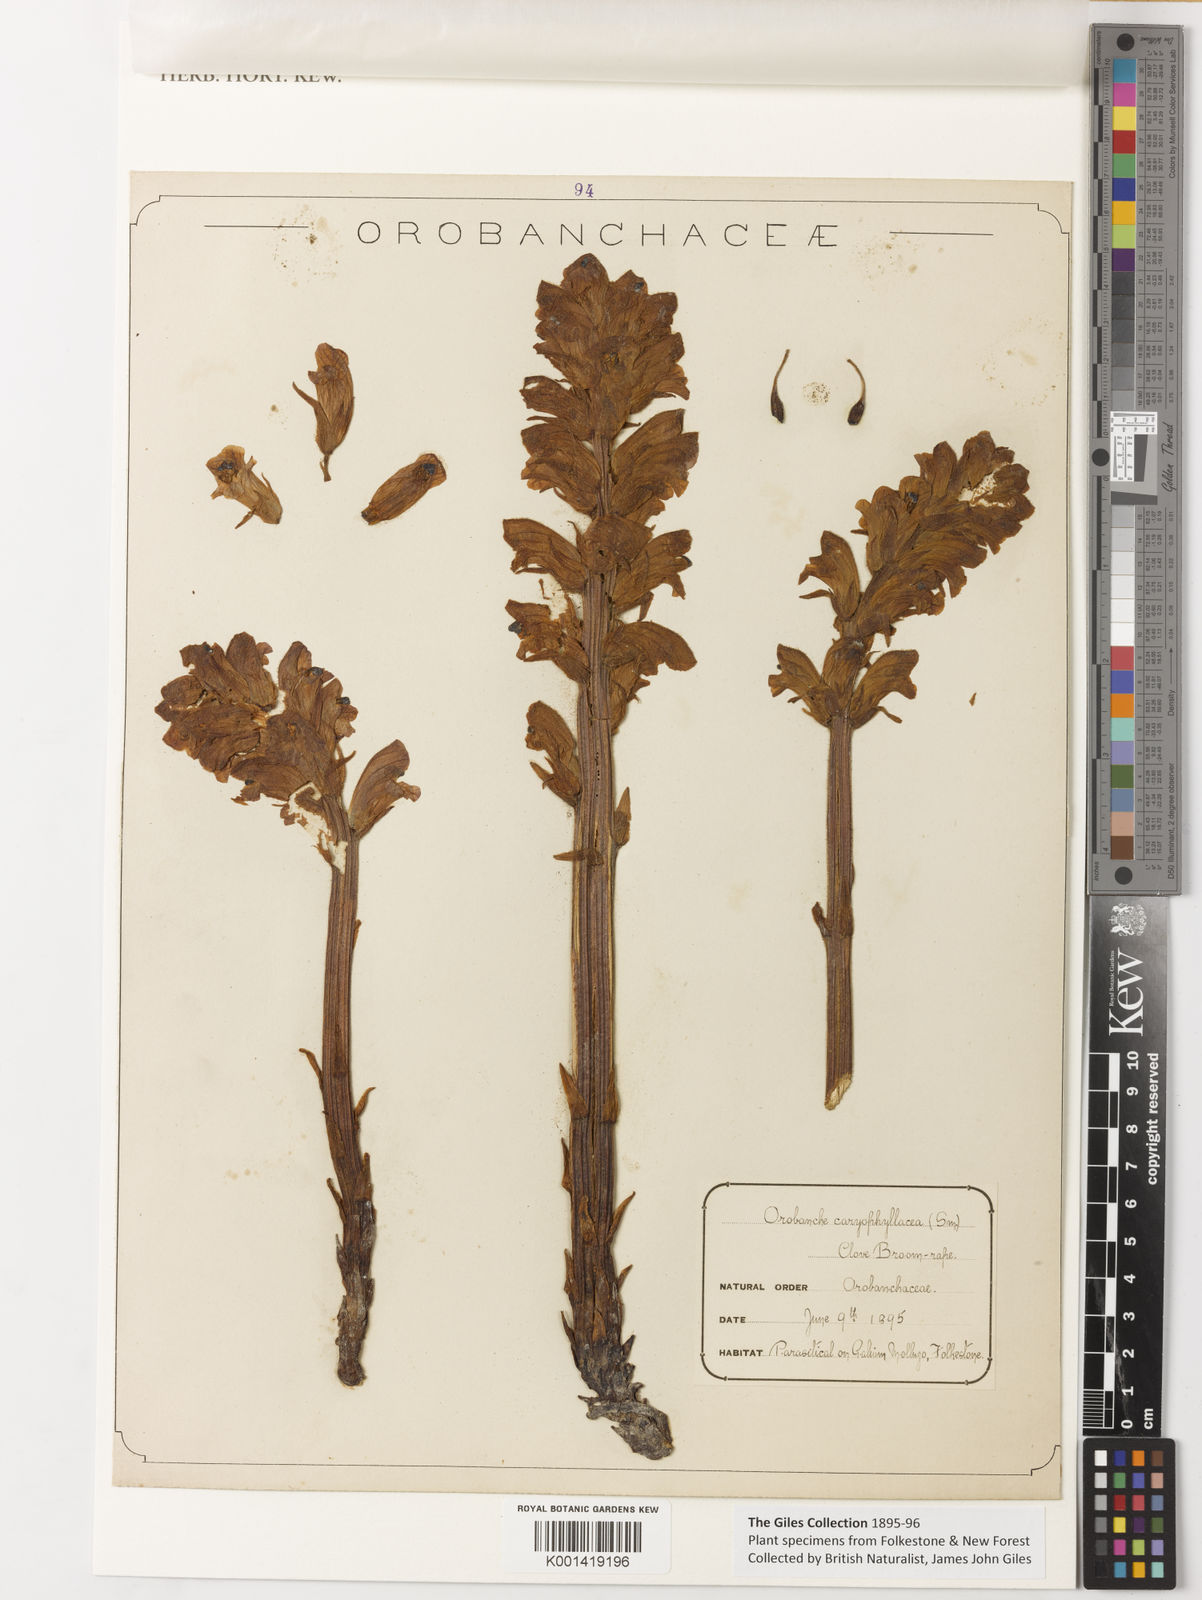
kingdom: Plantae
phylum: Tracheophyta
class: Magnoliopsida
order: Lamiales
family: Orobanchaceae
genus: Orobanche
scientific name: Orobanche
